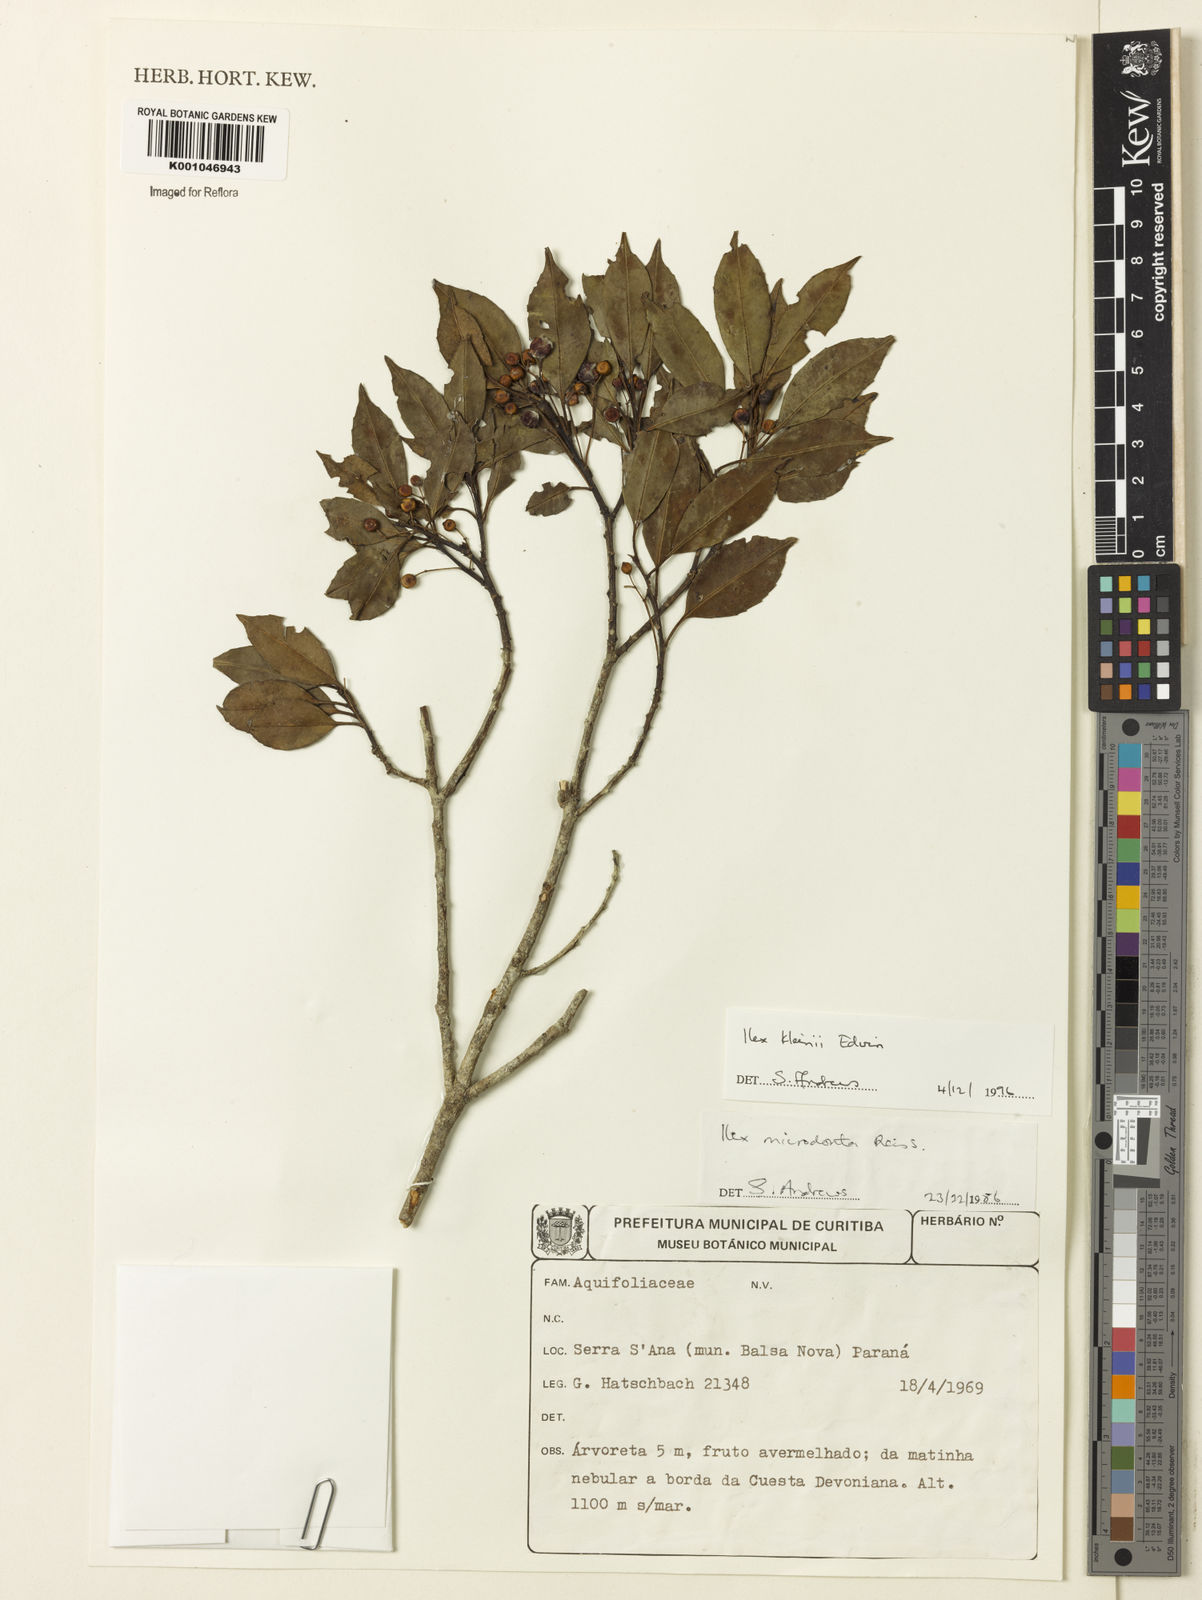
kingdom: Plantae
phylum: Tracheophyta
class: Magnoliopsida
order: Aquifoliales
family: Aquifoliaceae
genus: Ilex
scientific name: Ilex taubertiana
